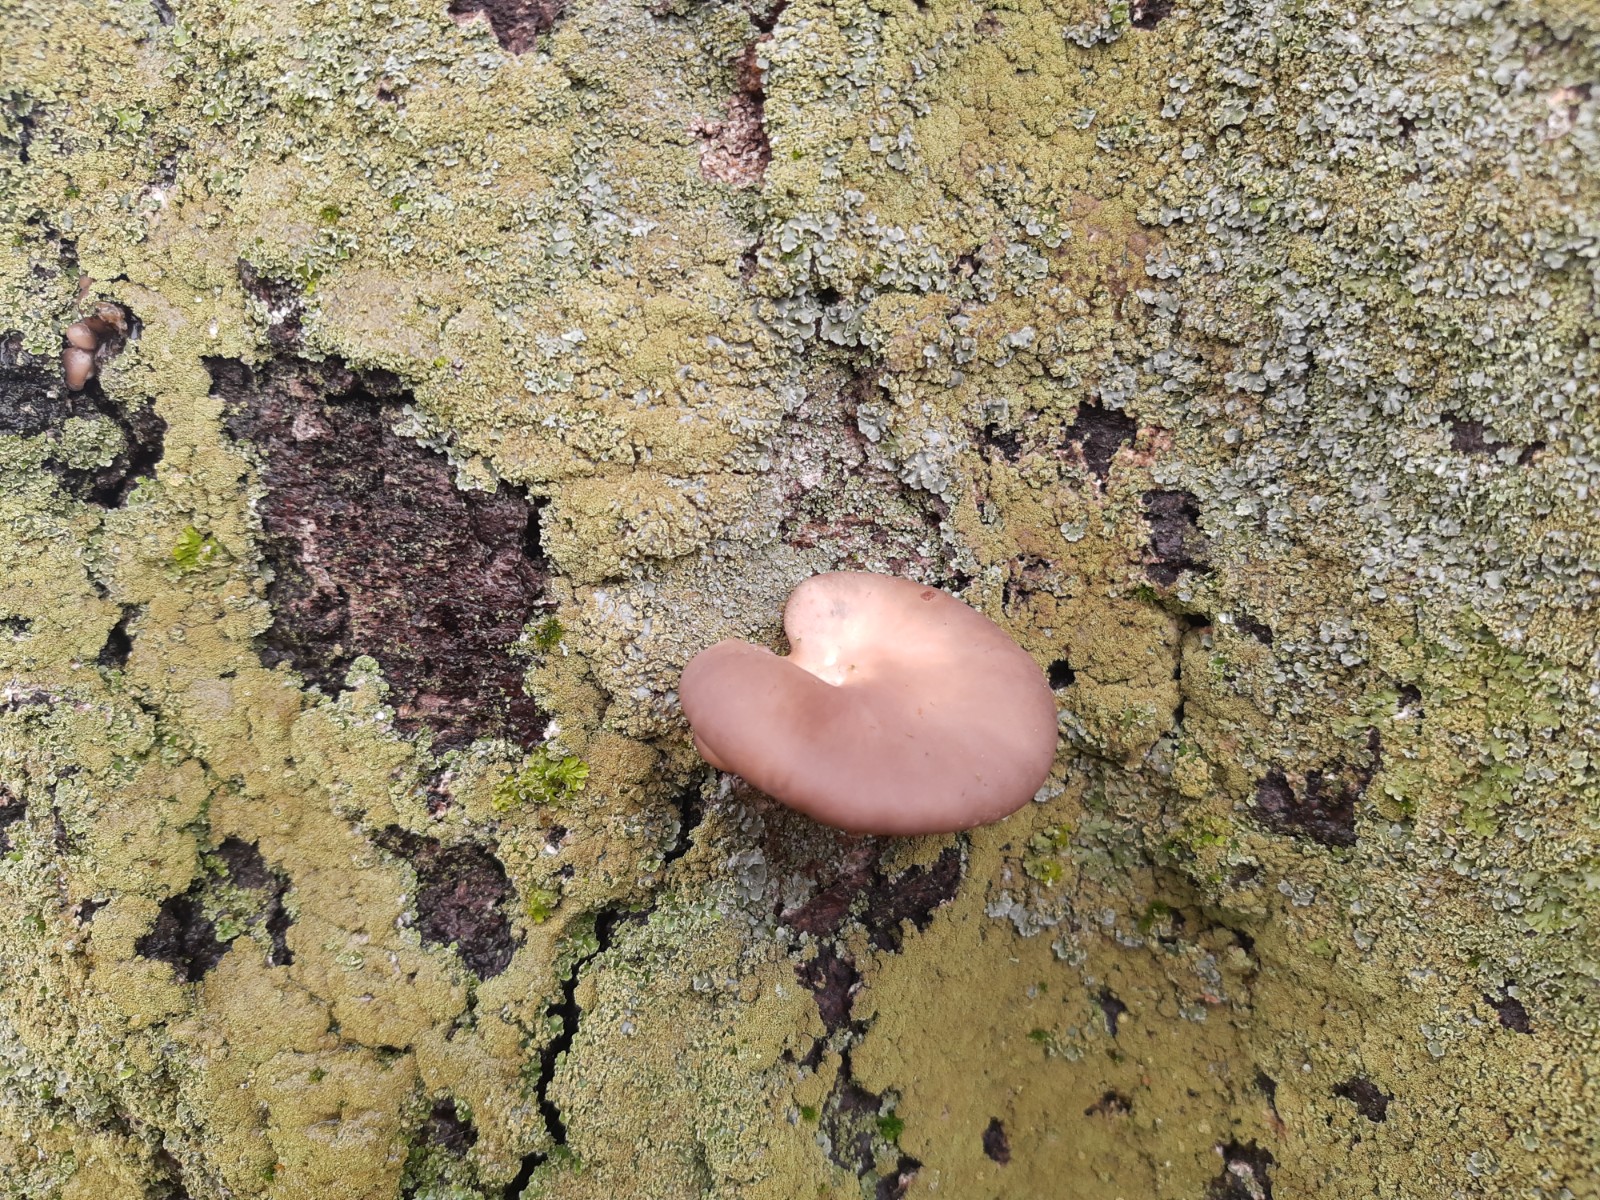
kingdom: Fungi
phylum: Basidiomycota
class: Agaricomycetes
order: Agaricales
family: Pleurotaceae
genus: Pleurotus
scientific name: Pleurotus ostreatus
